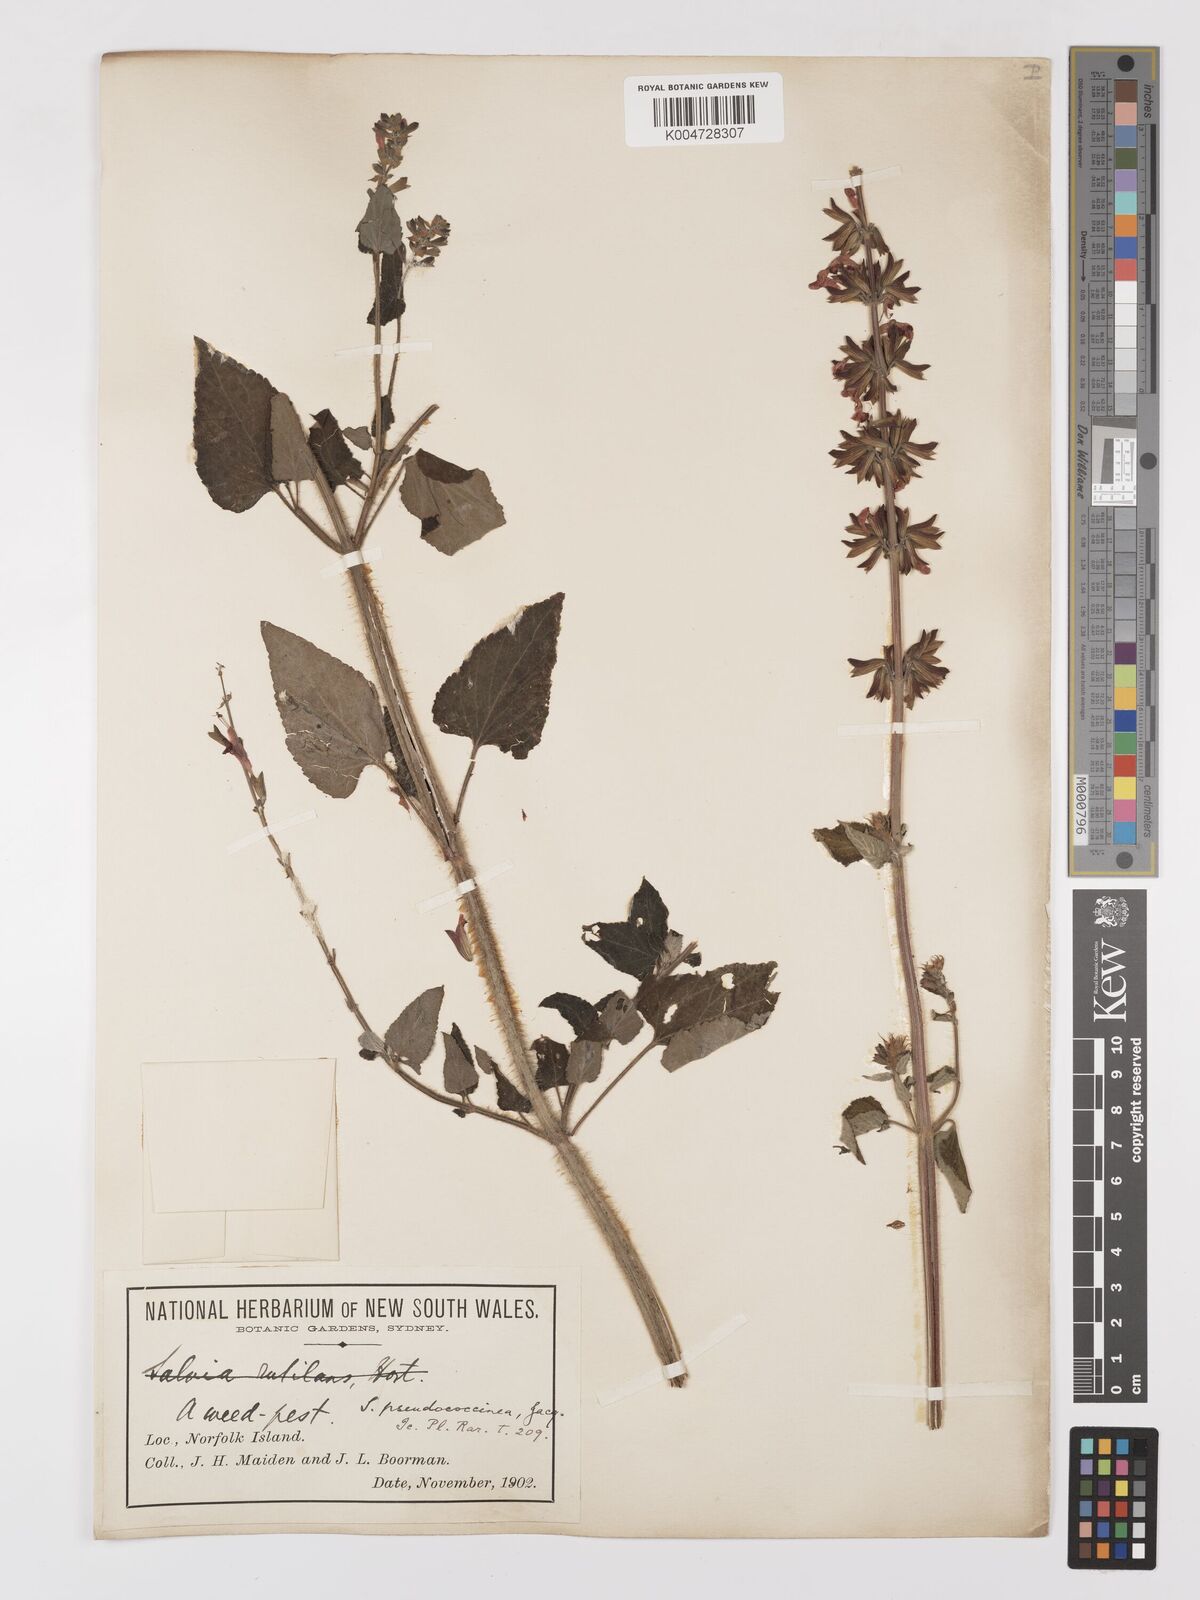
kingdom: Plantae
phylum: Tracheophyta
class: Magnoliopsida
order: Lamiales
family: Lamiaceae
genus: Salvia
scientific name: Salvia coccinea
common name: Blood sage
